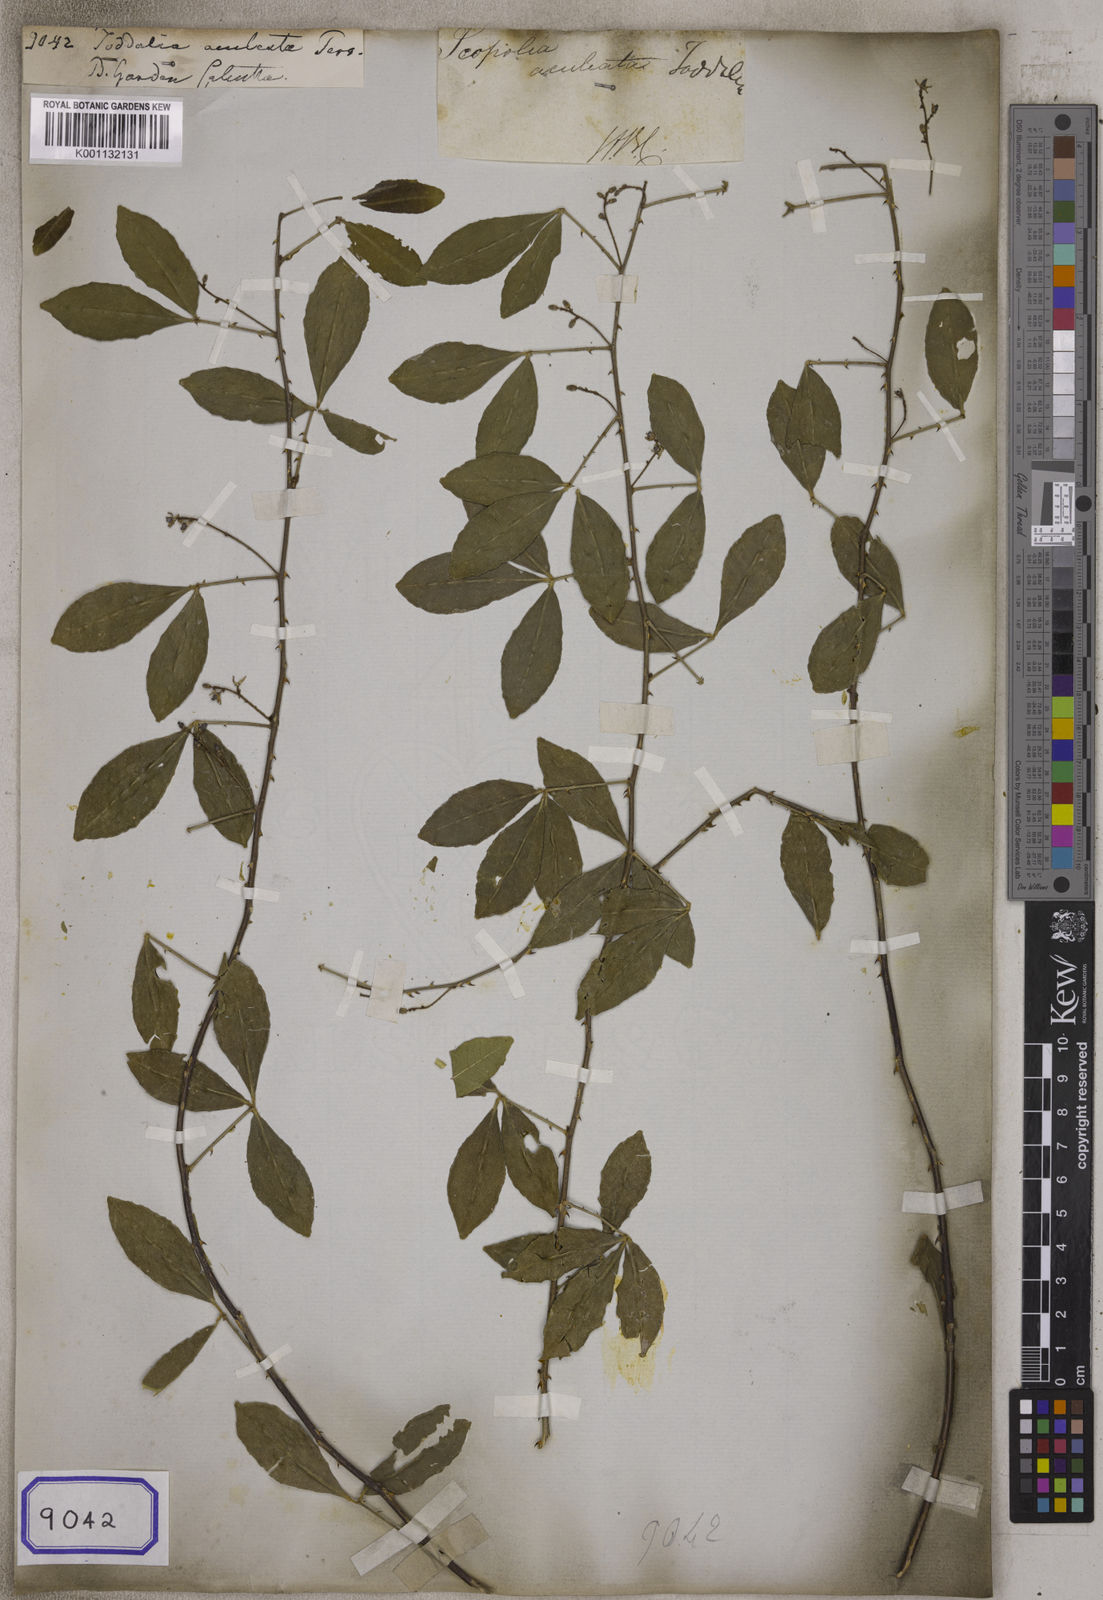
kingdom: Plantae
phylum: Tracheophyta
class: Magnoliopsida
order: Sapindales
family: Rutaceae
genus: Zanthoxylum
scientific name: Zanthoxylum asiaticum
